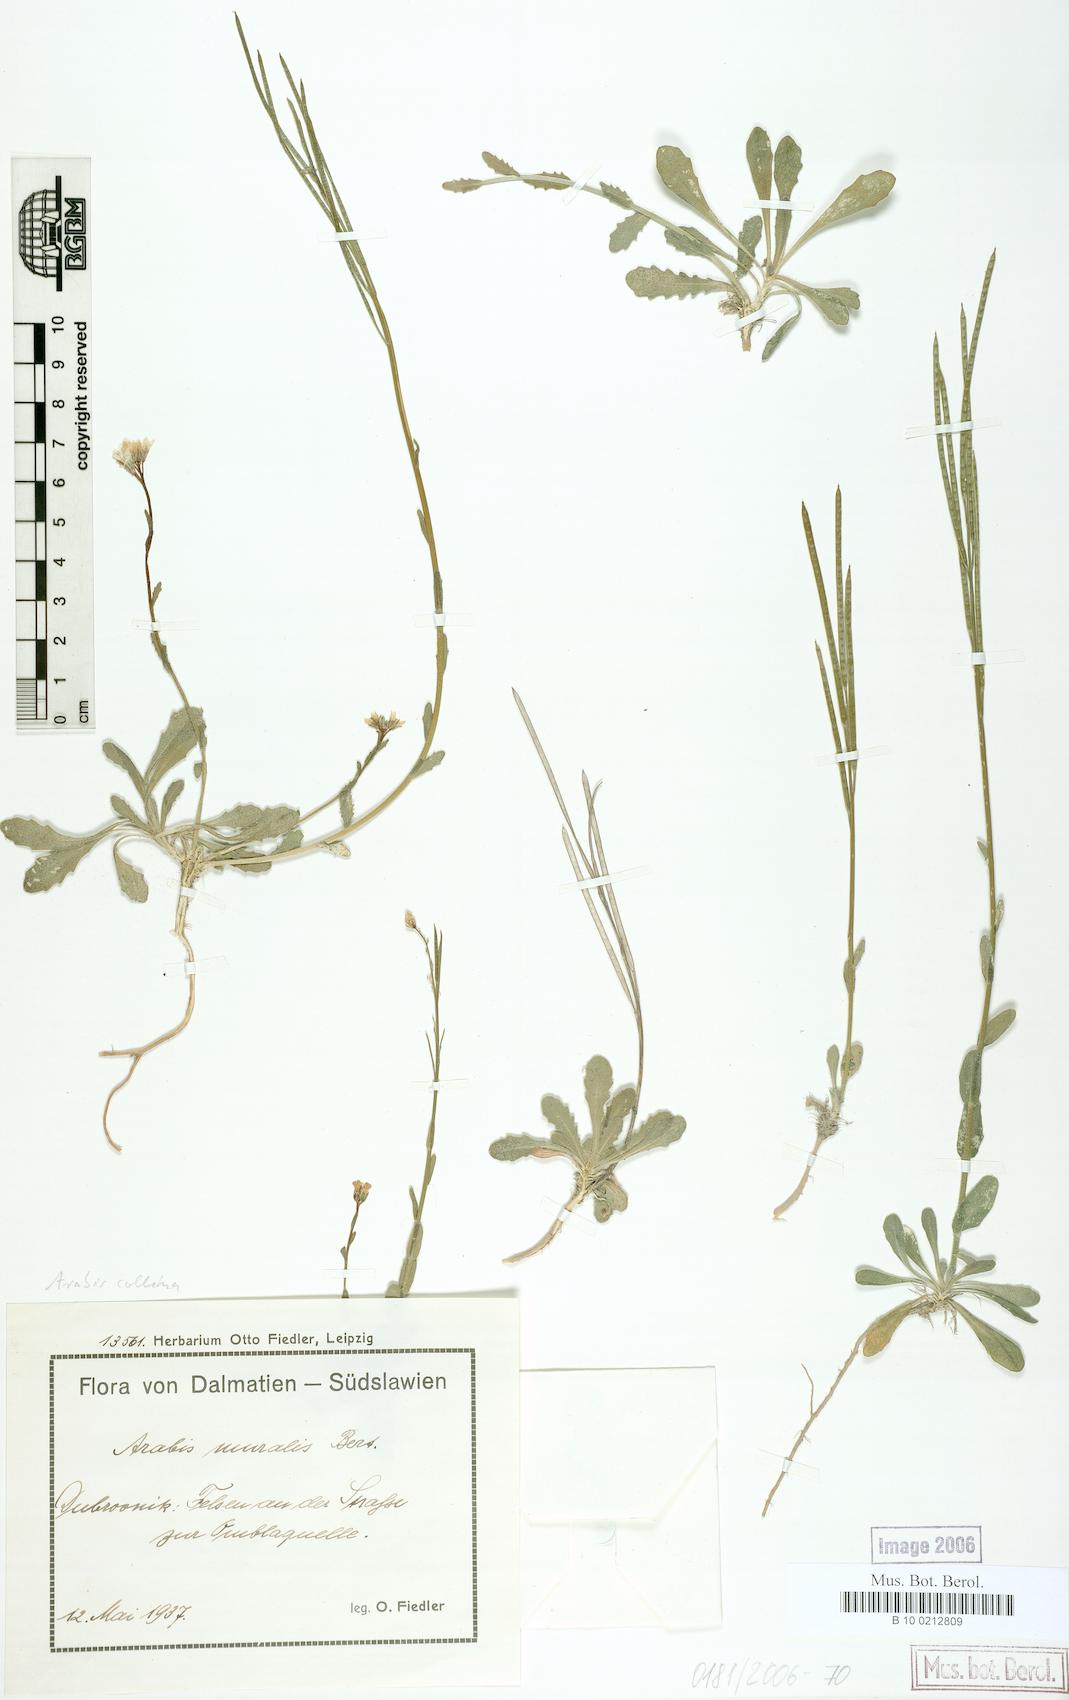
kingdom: Plantae
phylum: Tracheophyta
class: Magnoliopsida
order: Brassicales
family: Brassicaceae
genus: Arabis
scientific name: Arabis collina
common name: Rosy cress
